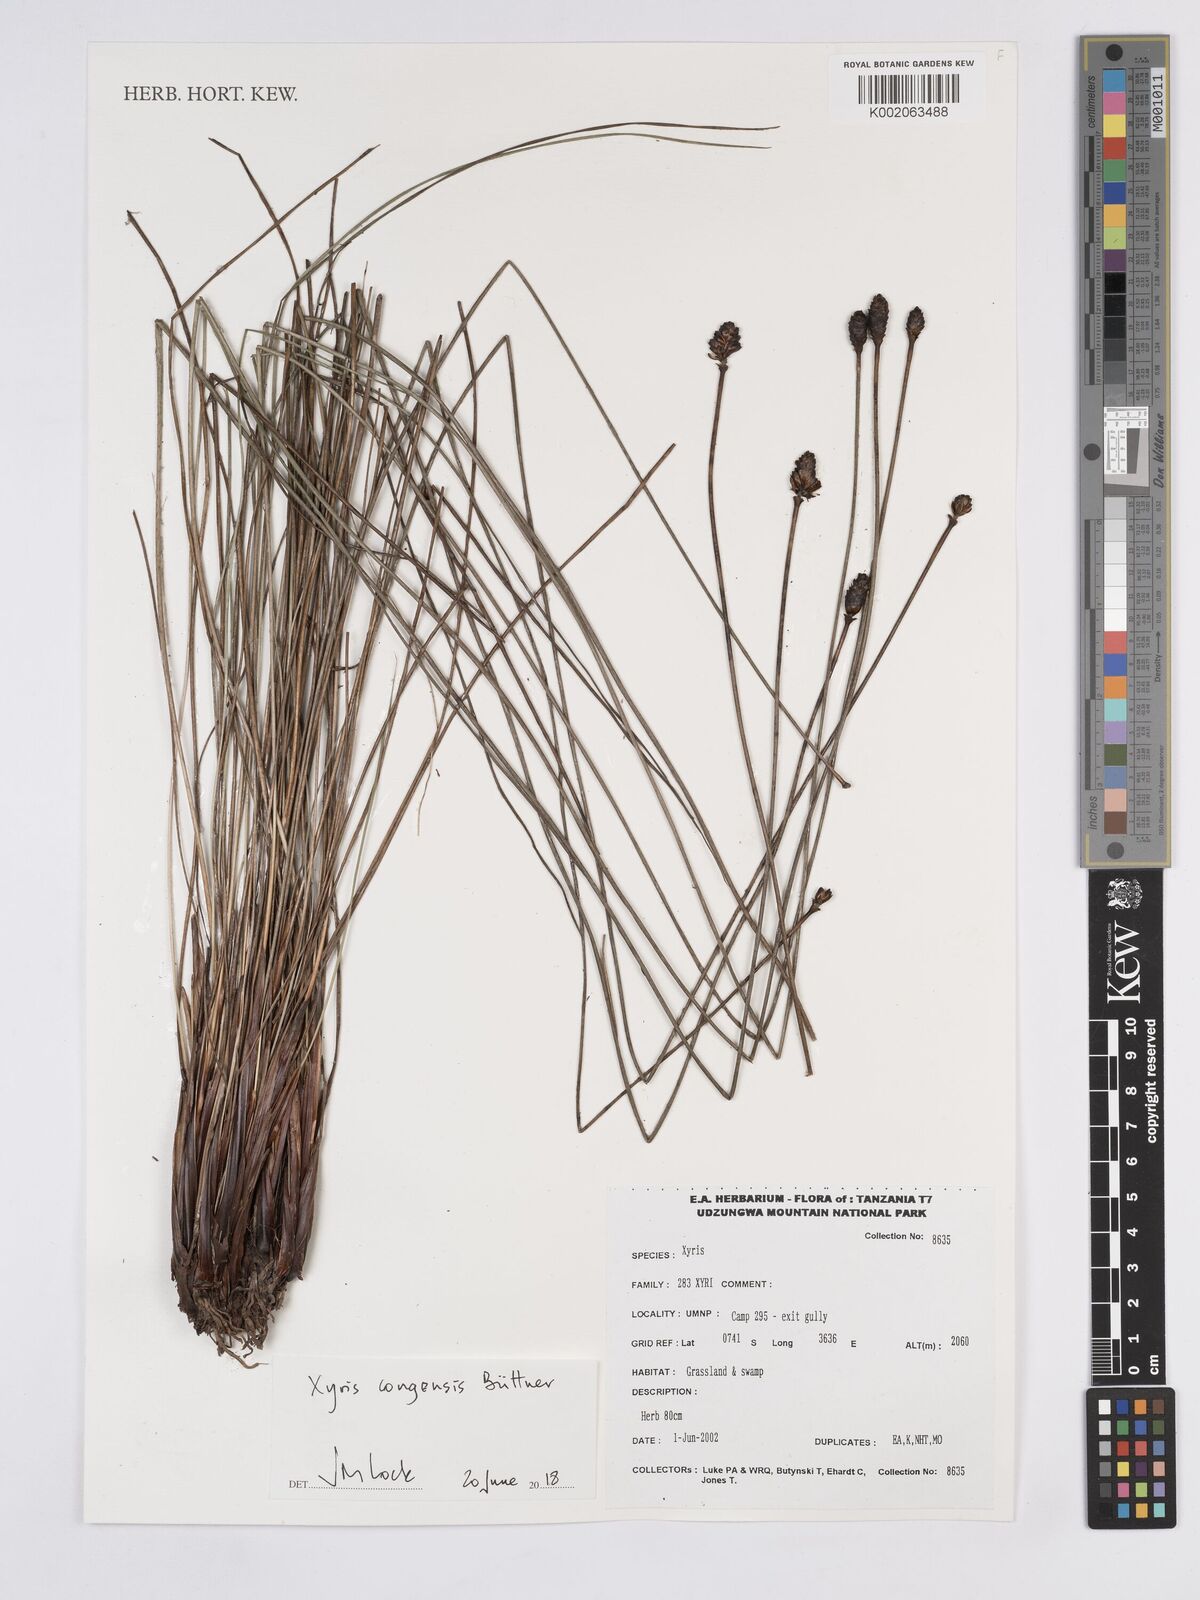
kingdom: Plantae
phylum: Tracheophyta
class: Liliopsida
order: Poales
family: Xyridaceae
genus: Xyris
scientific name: Xyris congensis
